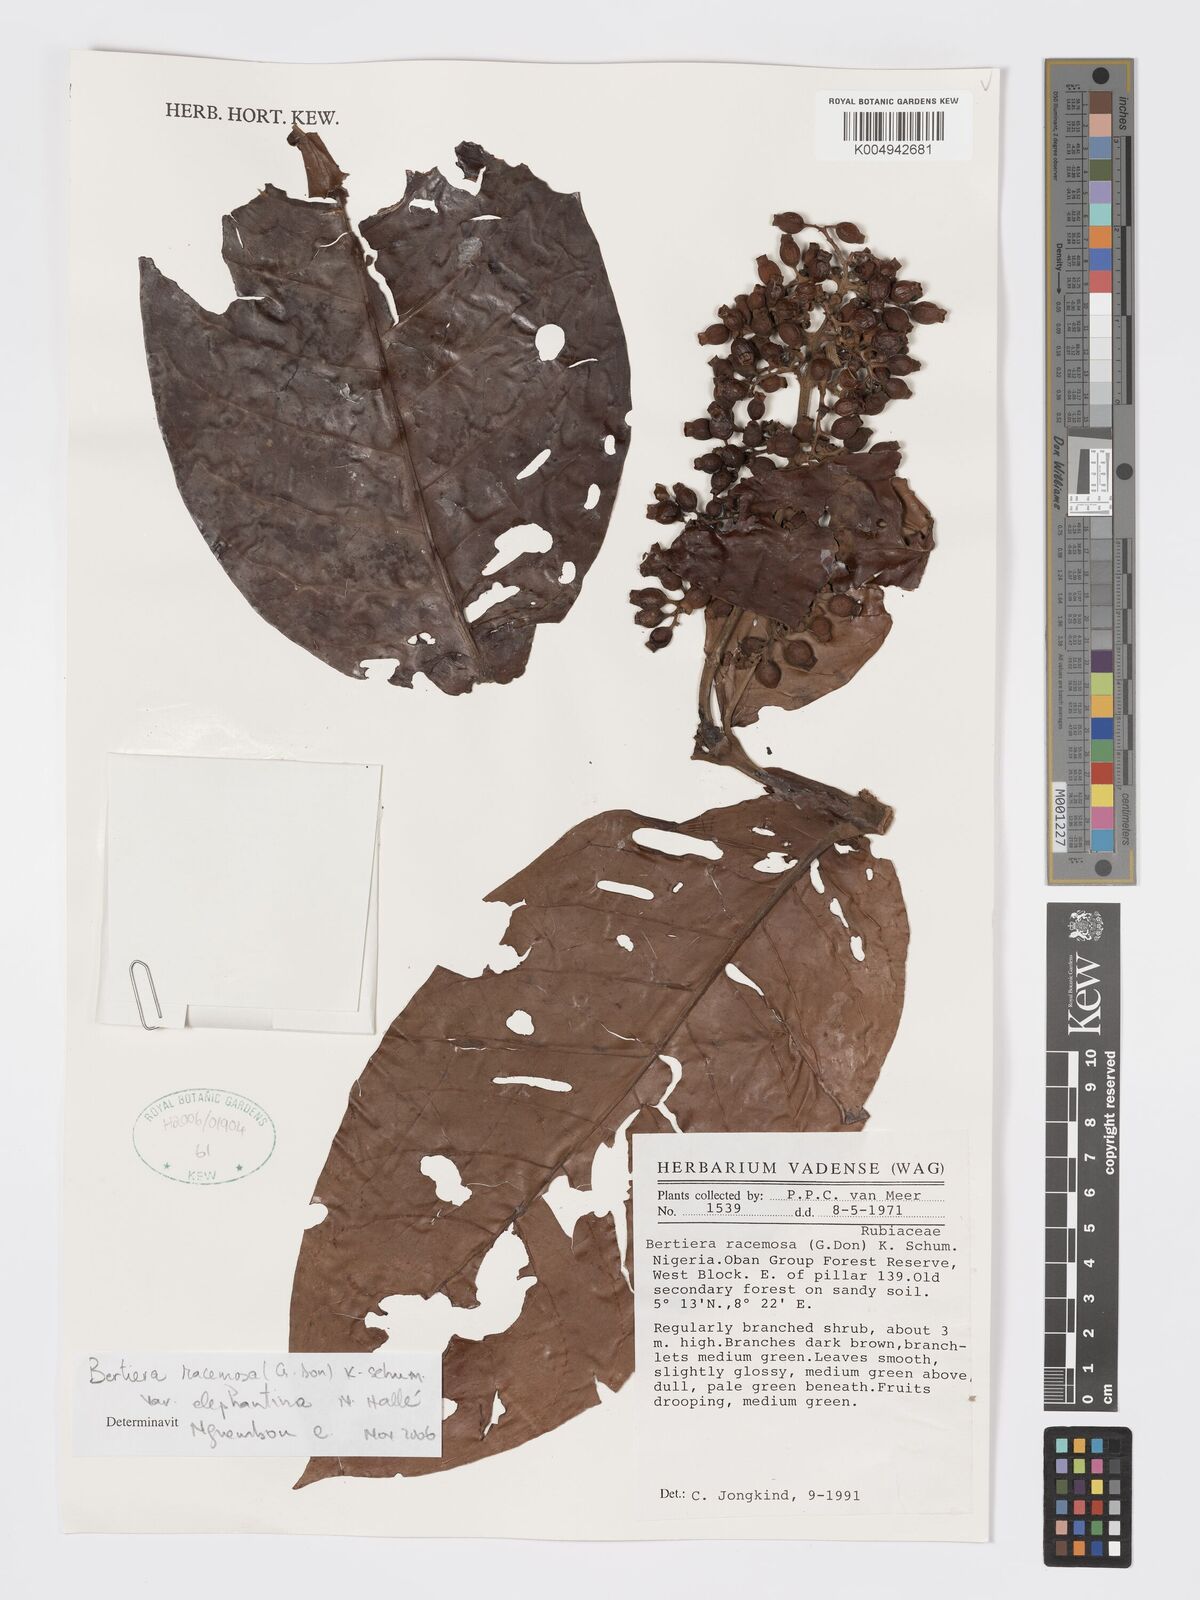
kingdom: Plantae
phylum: Tracheophyta
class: Magnoliopsida
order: Gentianales
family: Rubiaceae
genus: Bertiera
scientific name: Bertiera racemosa
